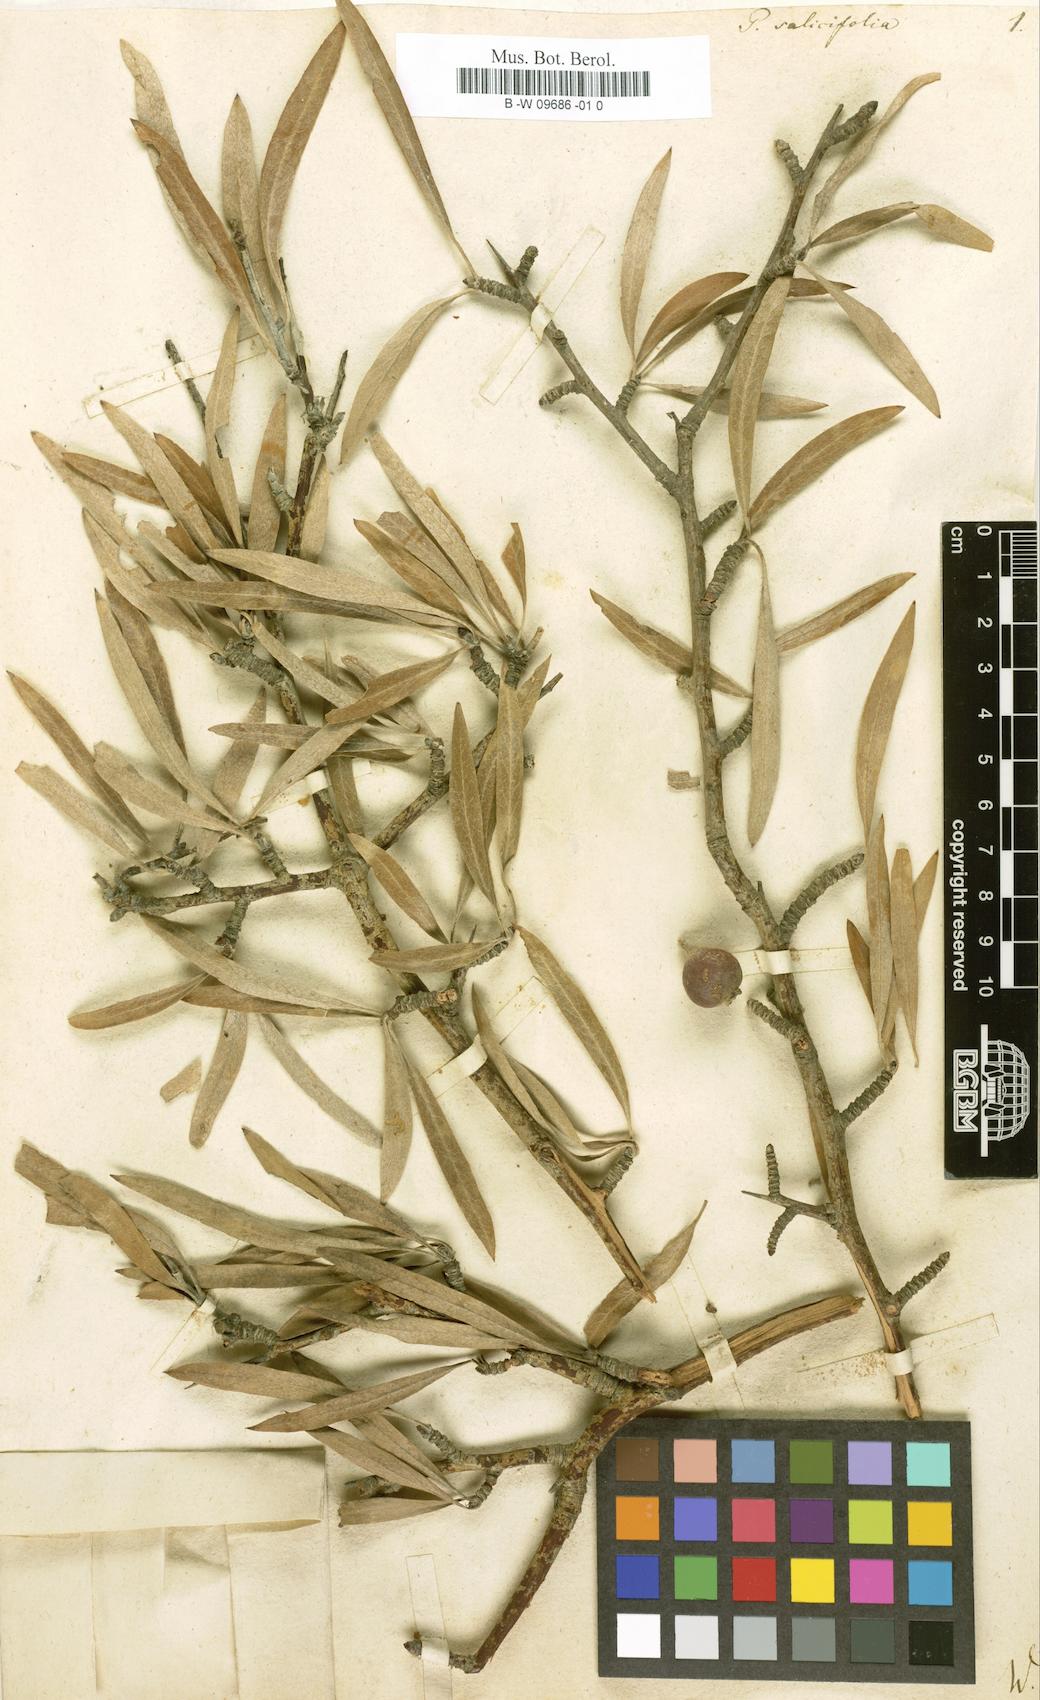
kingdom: Plantae
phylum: Tracheophyta
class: Magnoliopsida
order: Rosales
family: Rosaceae
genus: Pyrus
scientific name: Pyrus salicifolia
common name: Willow-leaved pear
